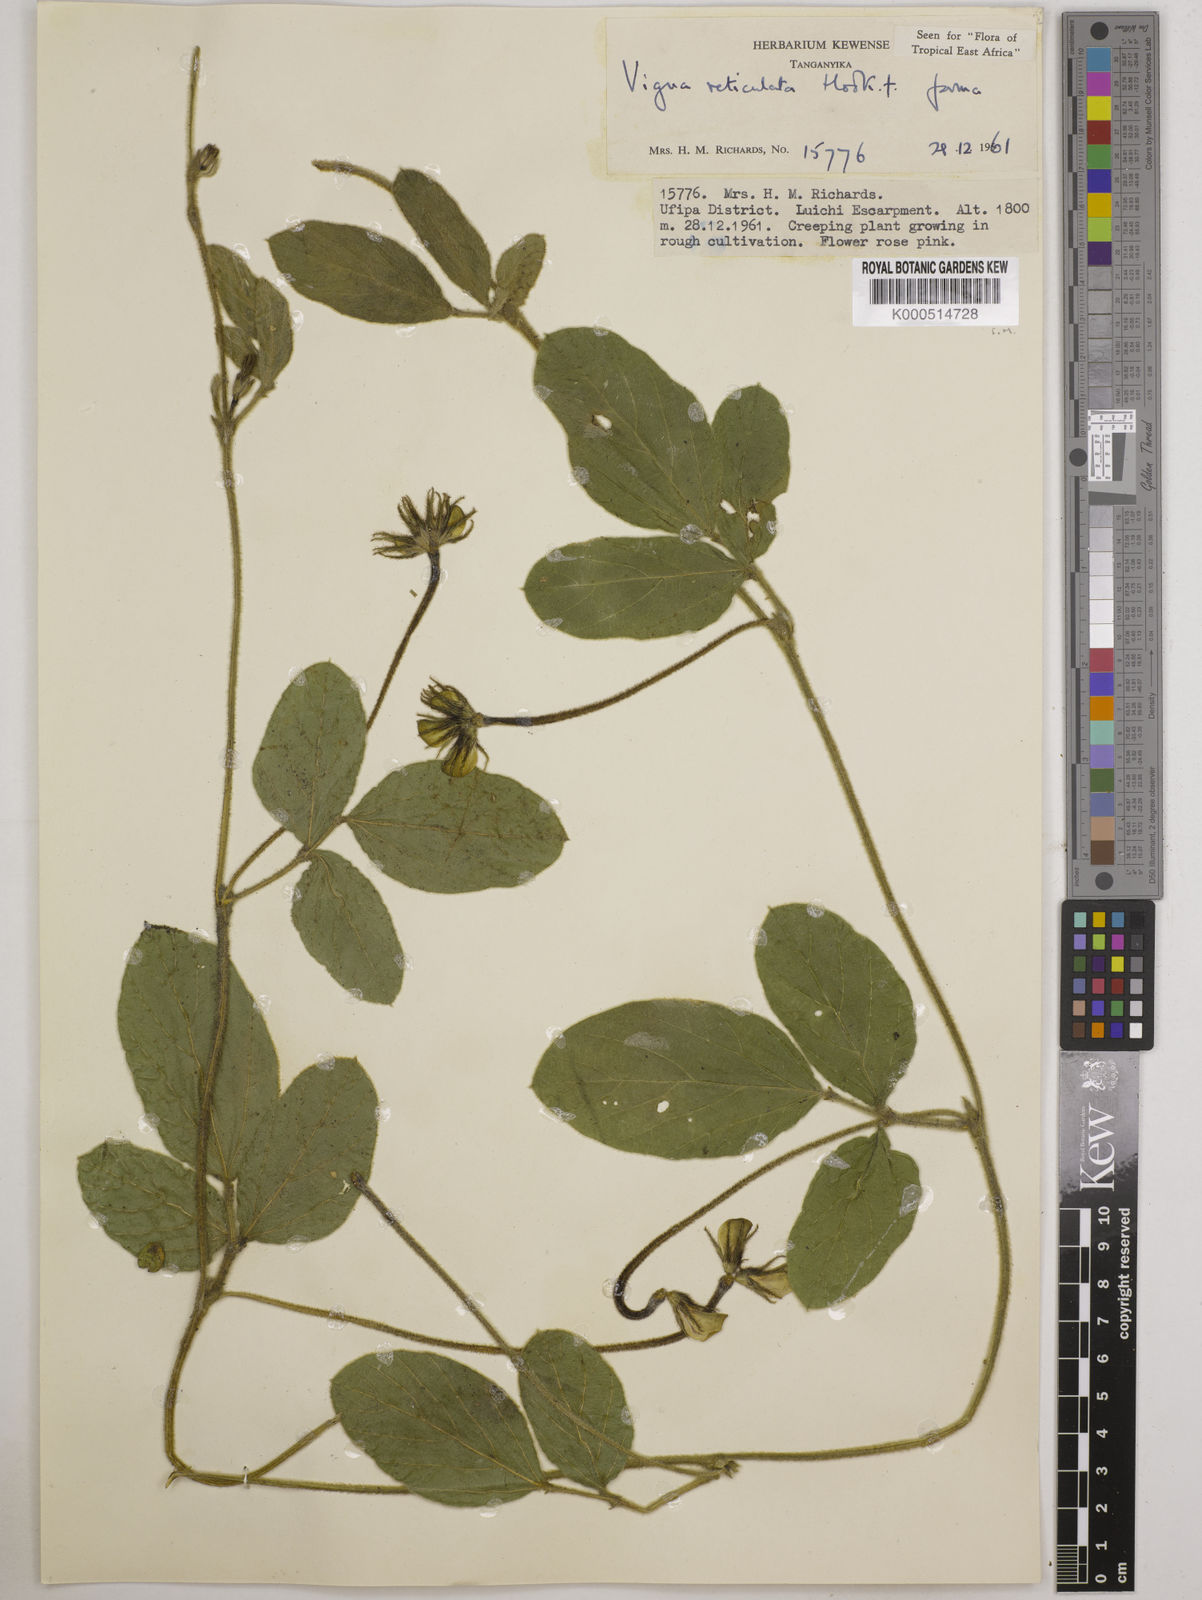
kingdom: Plantae
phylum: Tracheophyta
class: Magnoliopsida
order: Fabales
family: Fabaceae
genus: Vigna
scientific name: Vigna reticulata
